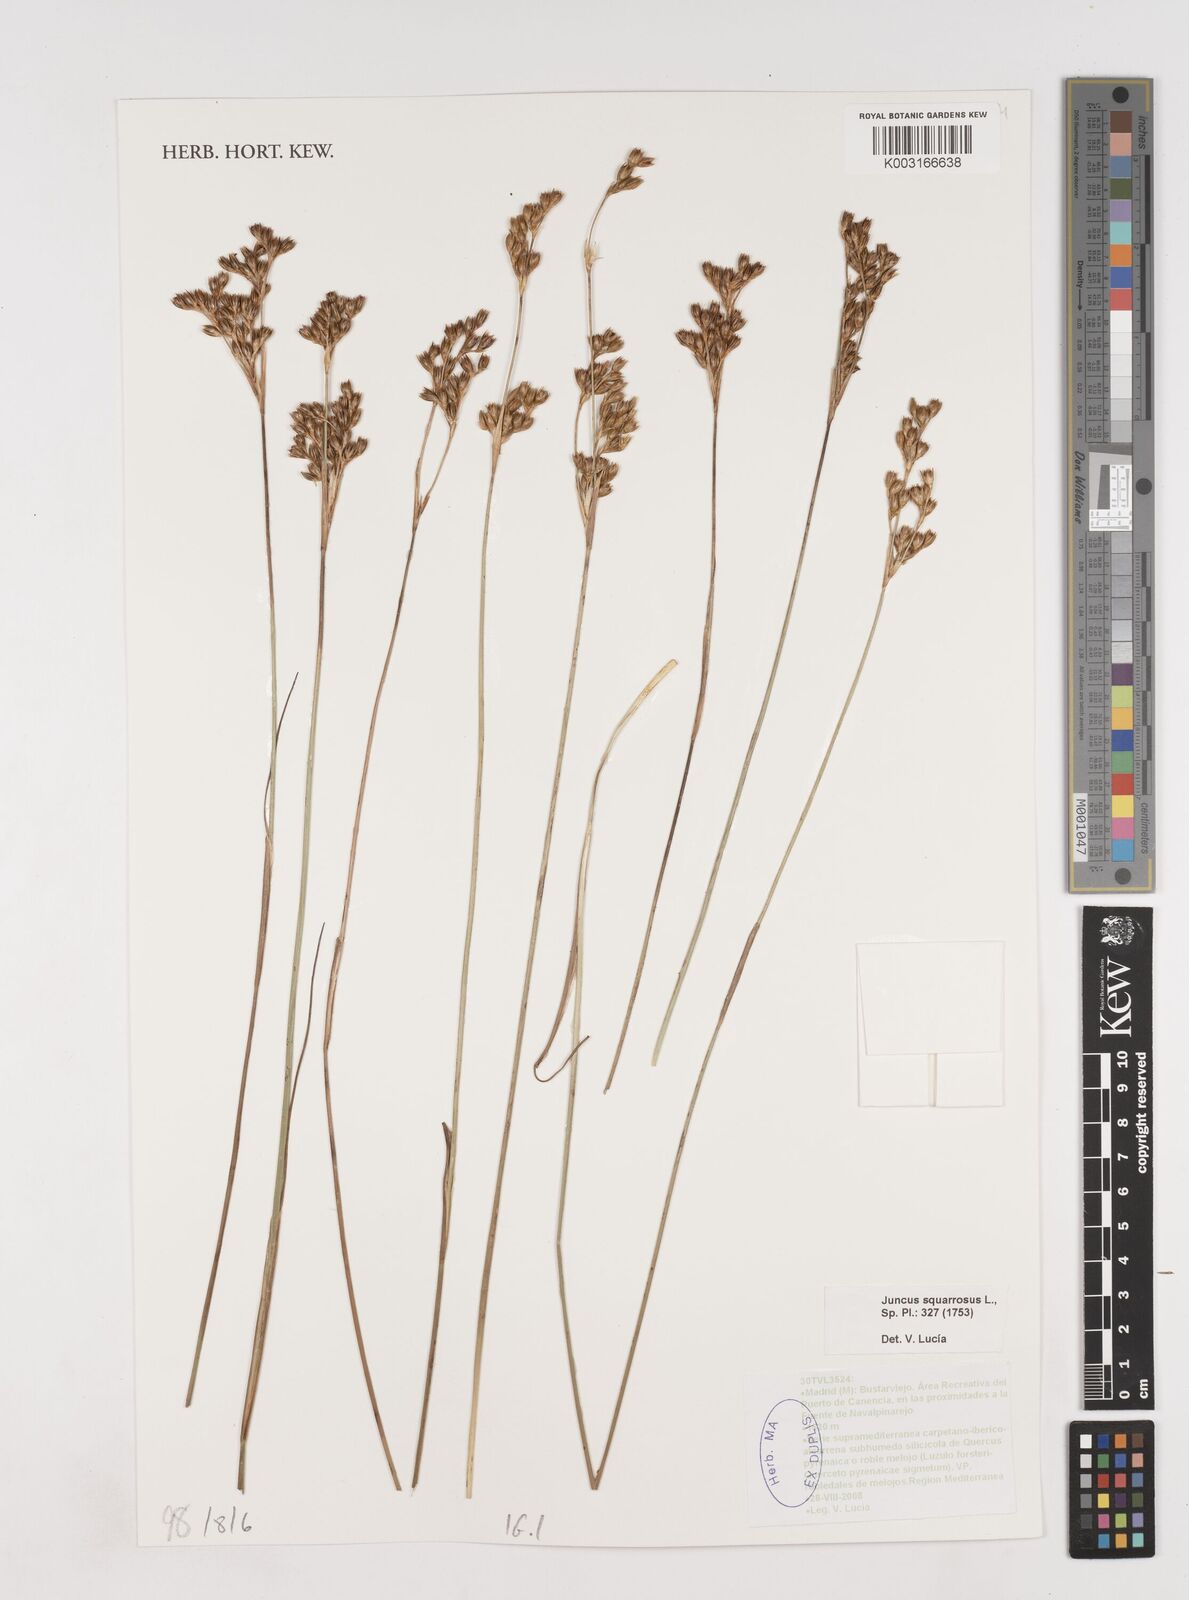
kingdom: Plantae
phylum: Tracheophyta
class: Liliopsida
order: Poales
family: Juncaceae
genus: Juncus
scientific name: Juncus squarrosus
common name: Heath rush
